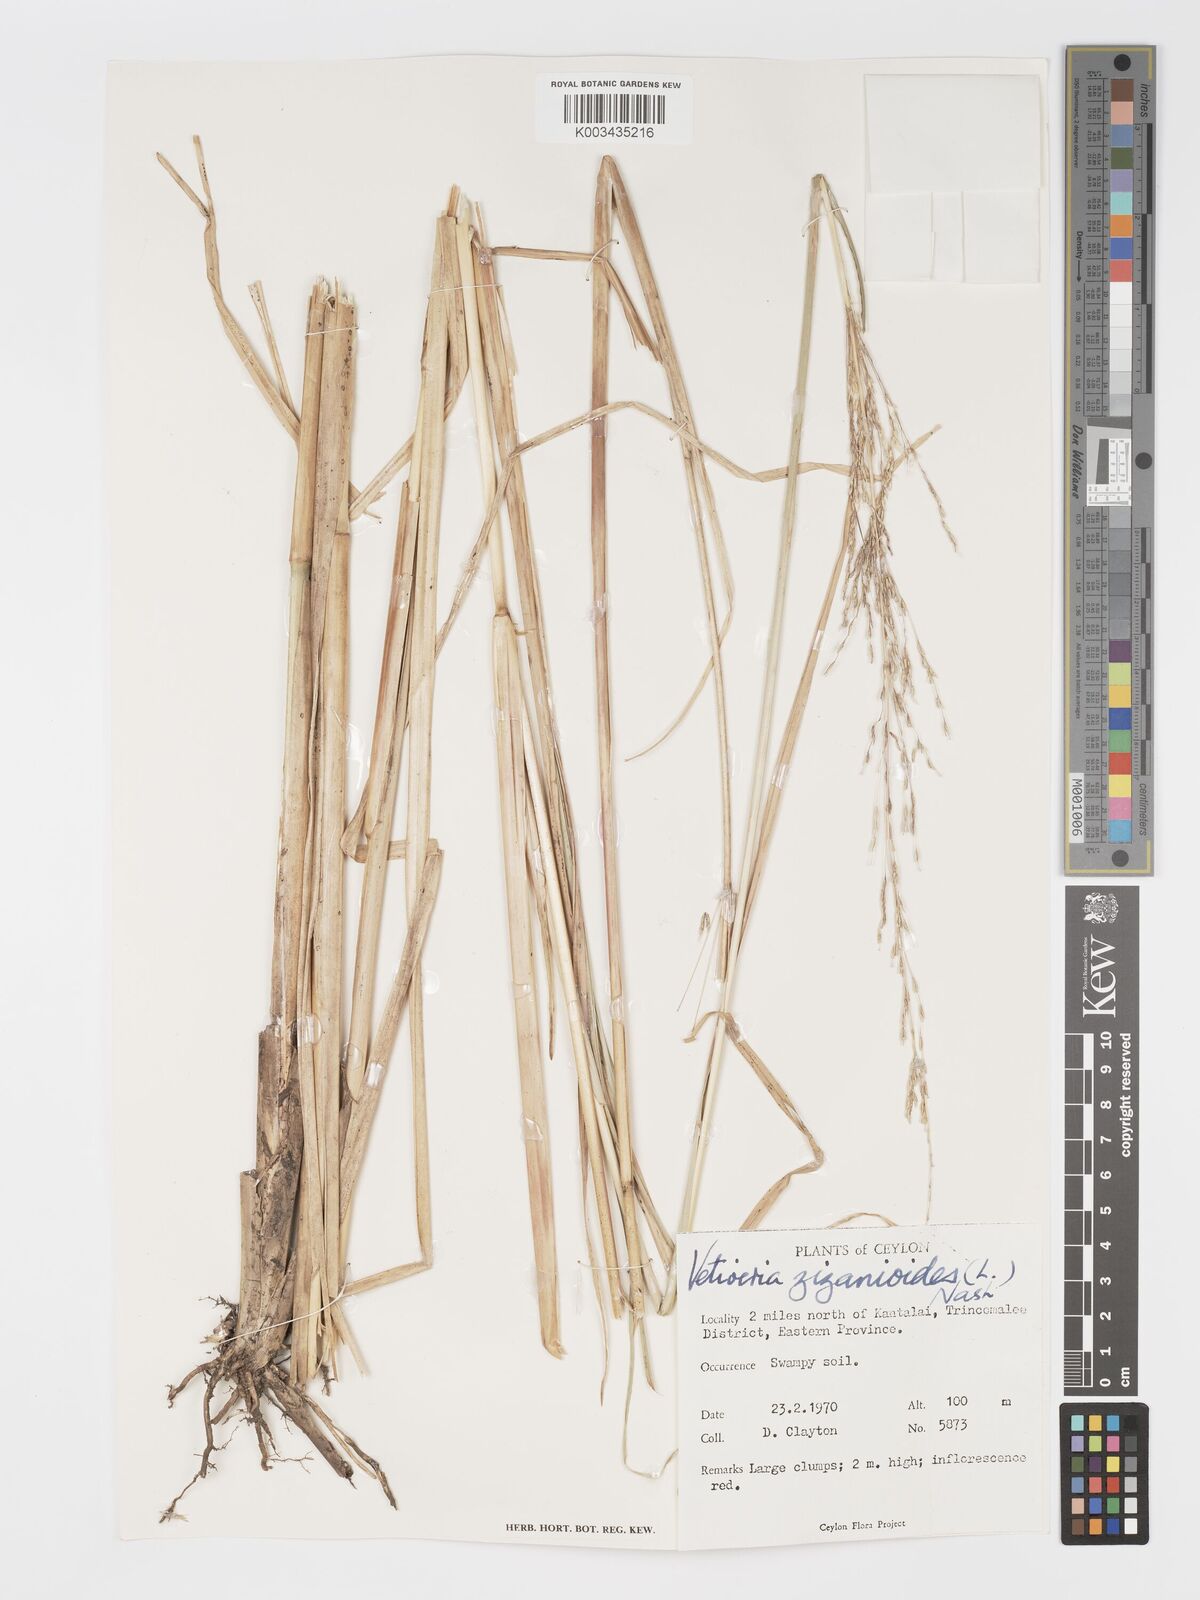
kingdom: Plantae
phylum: Tracheophyta
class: Liliopsida
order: Poales
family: Poaceae
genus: Chrysopogon
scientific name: Chrysopogon zizanioides
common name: False beardgrass
